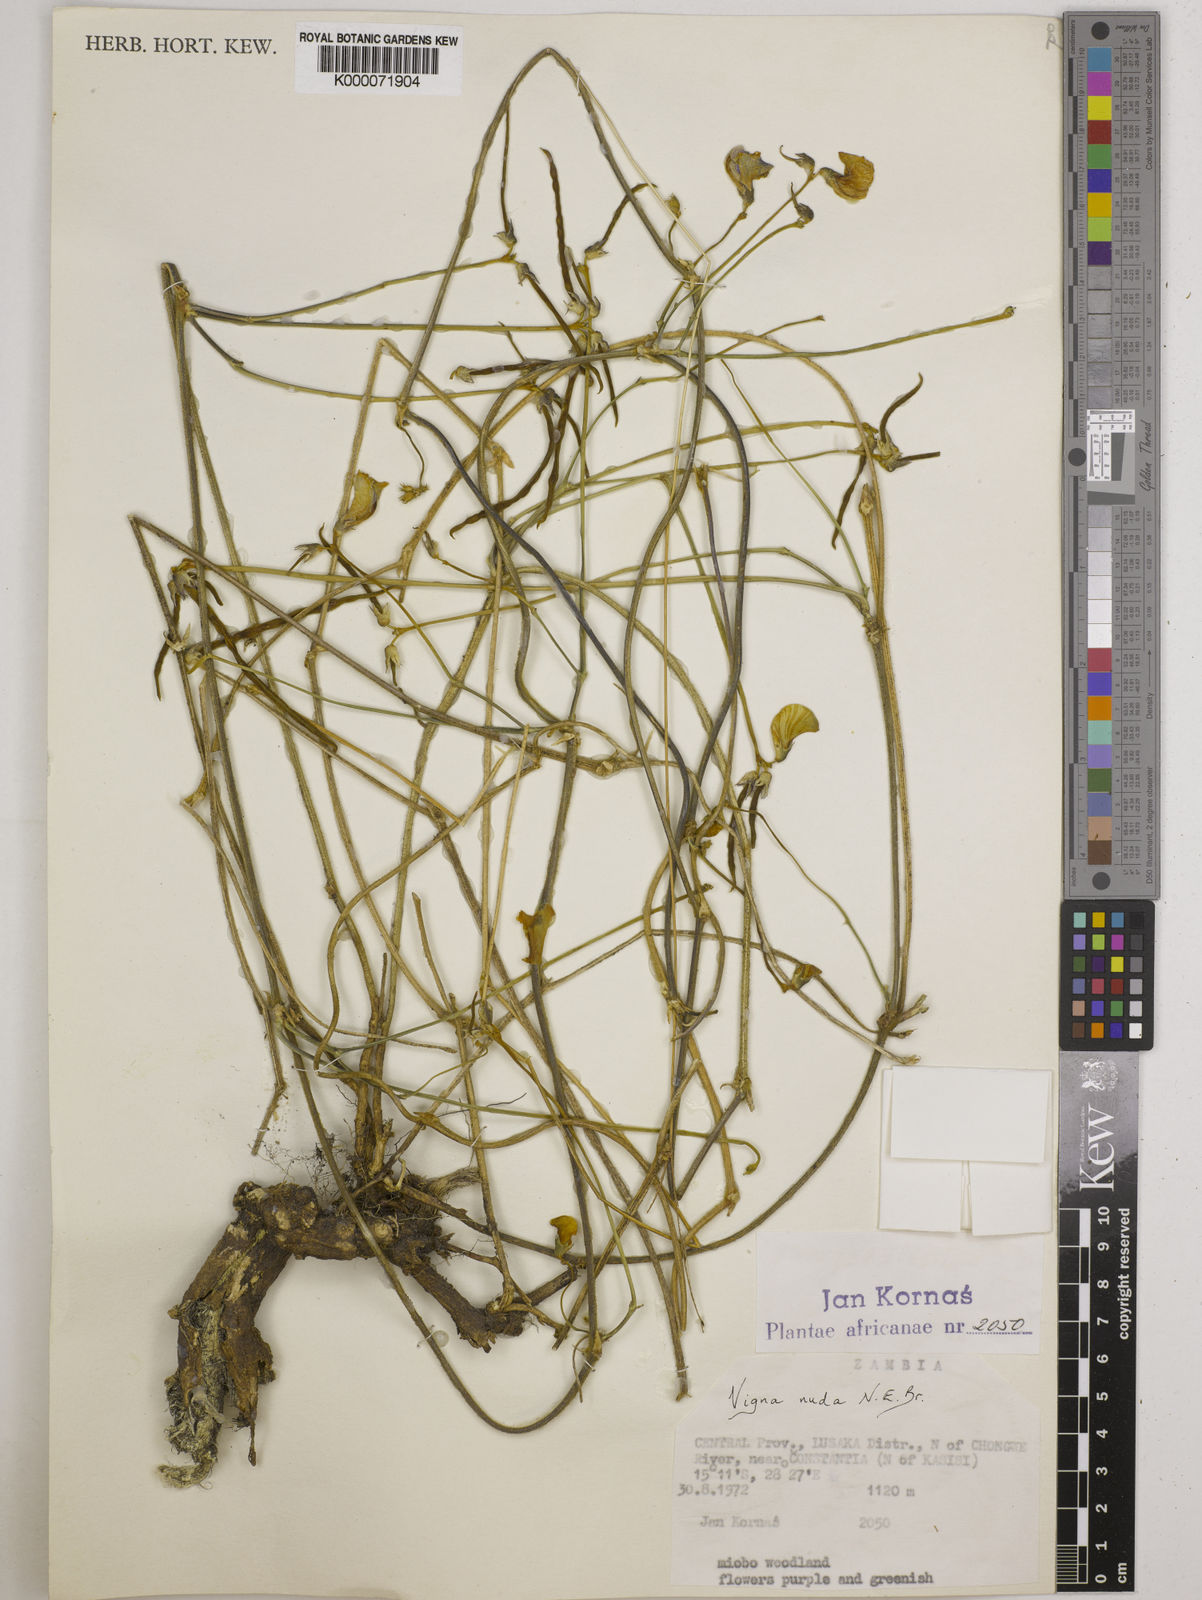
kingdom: Plantae
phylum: Tracheophyta
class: Magnoliopsida
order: Fabales
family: Fabaceae
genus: Vigna
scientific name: Vigna antunesii
